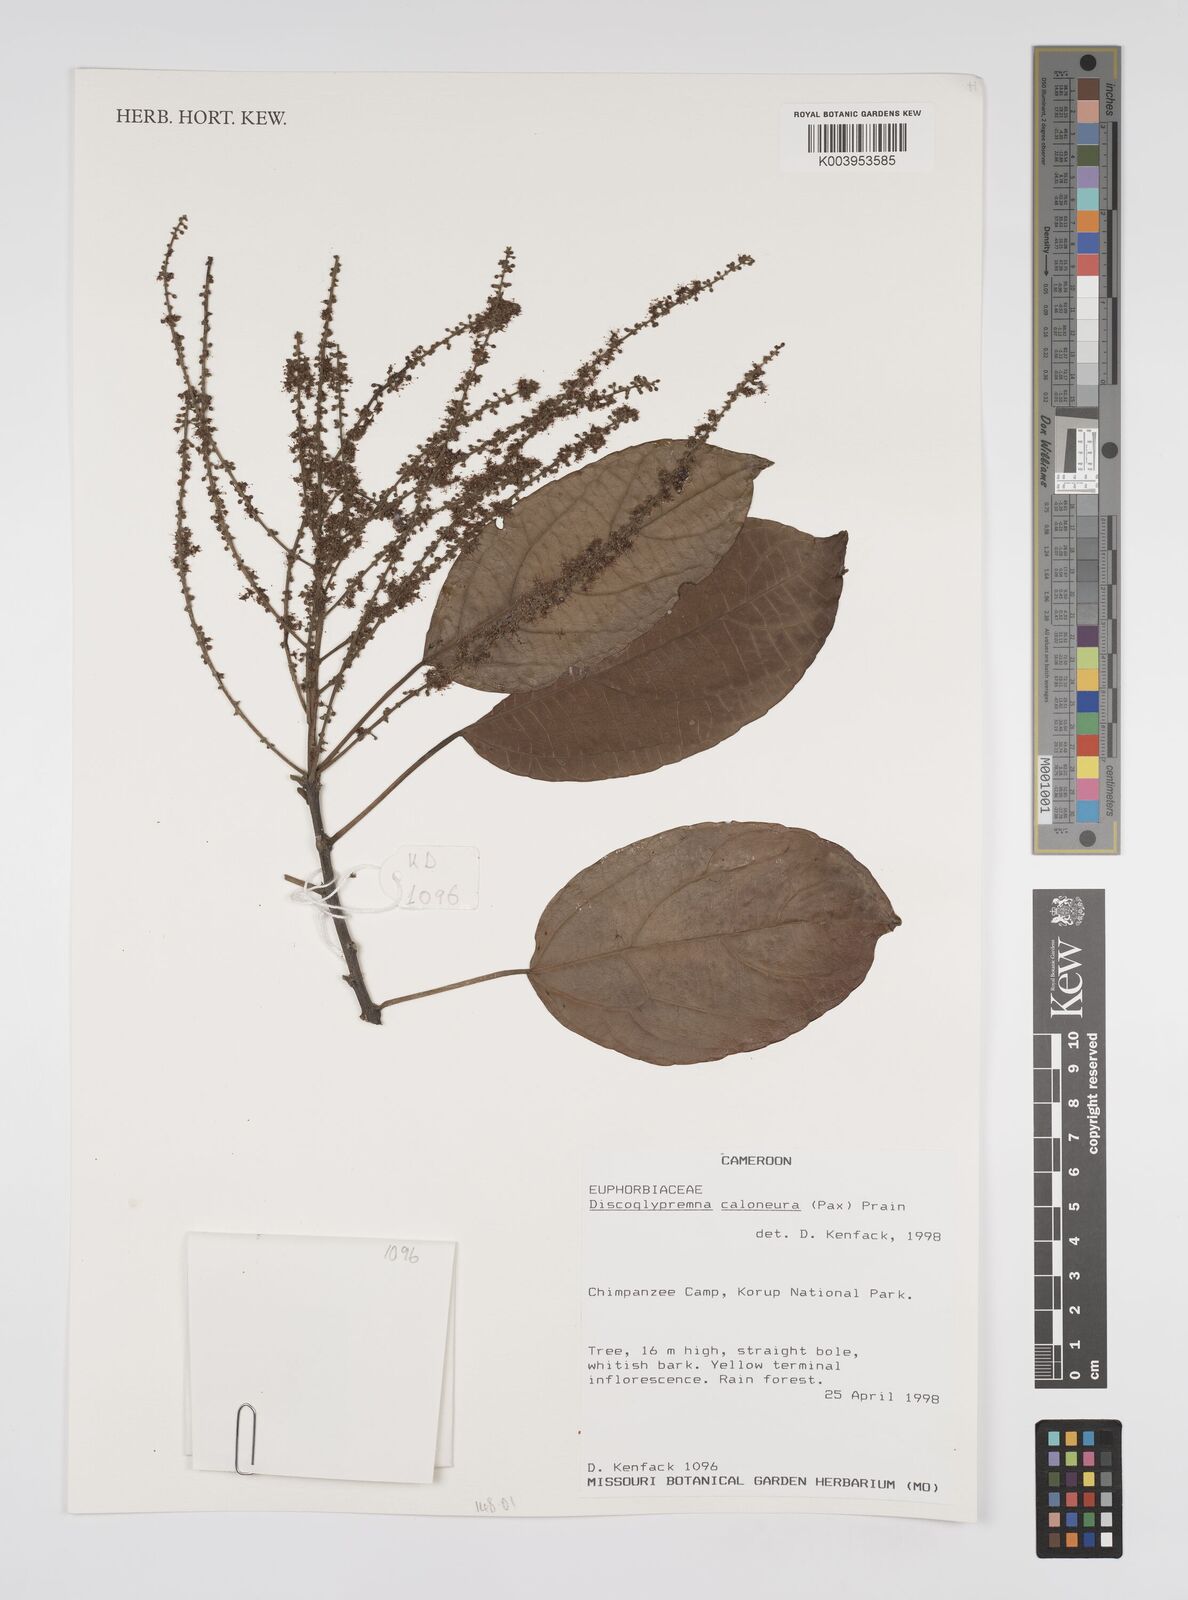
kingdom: Plantae
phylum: Tracheophyta
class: Magnoliopsida
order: Malpighiales
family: Euphorbiaceae
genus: Discoglypremna
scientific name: Discoglypremna caloneura
